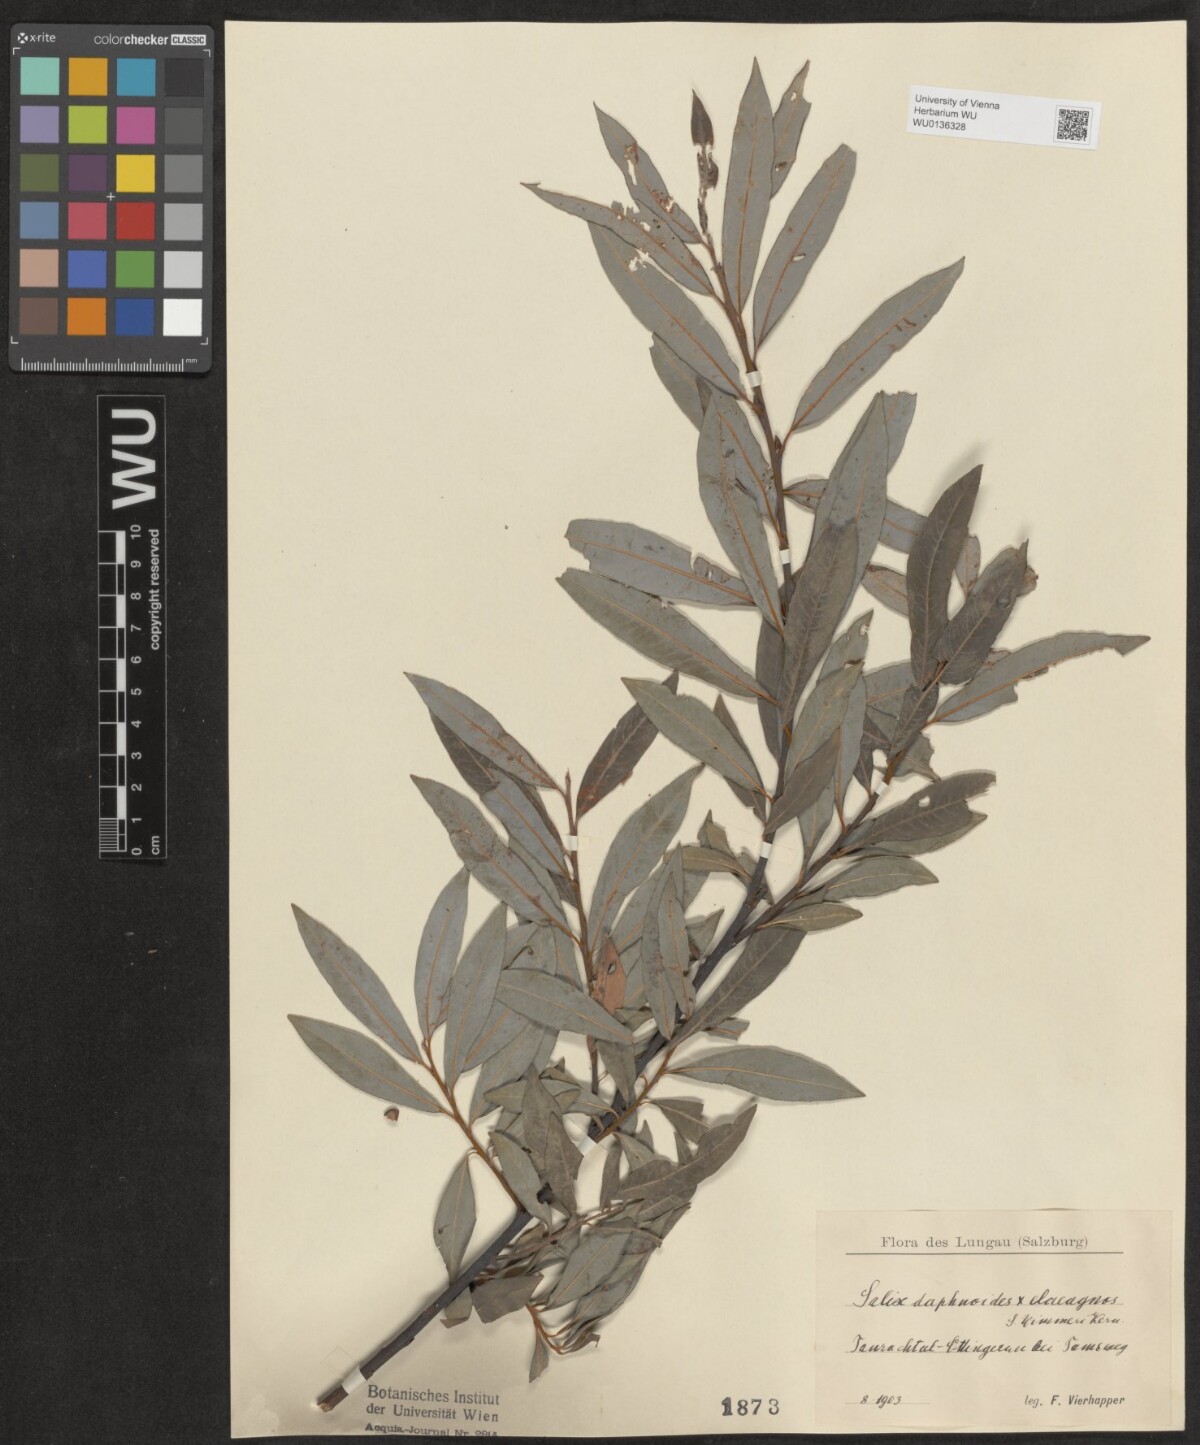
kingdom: Plantae
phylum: Tracheophyta
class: Magnoliopsida
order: Malpighiales
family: Salicaceae
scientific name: Salicaceae
